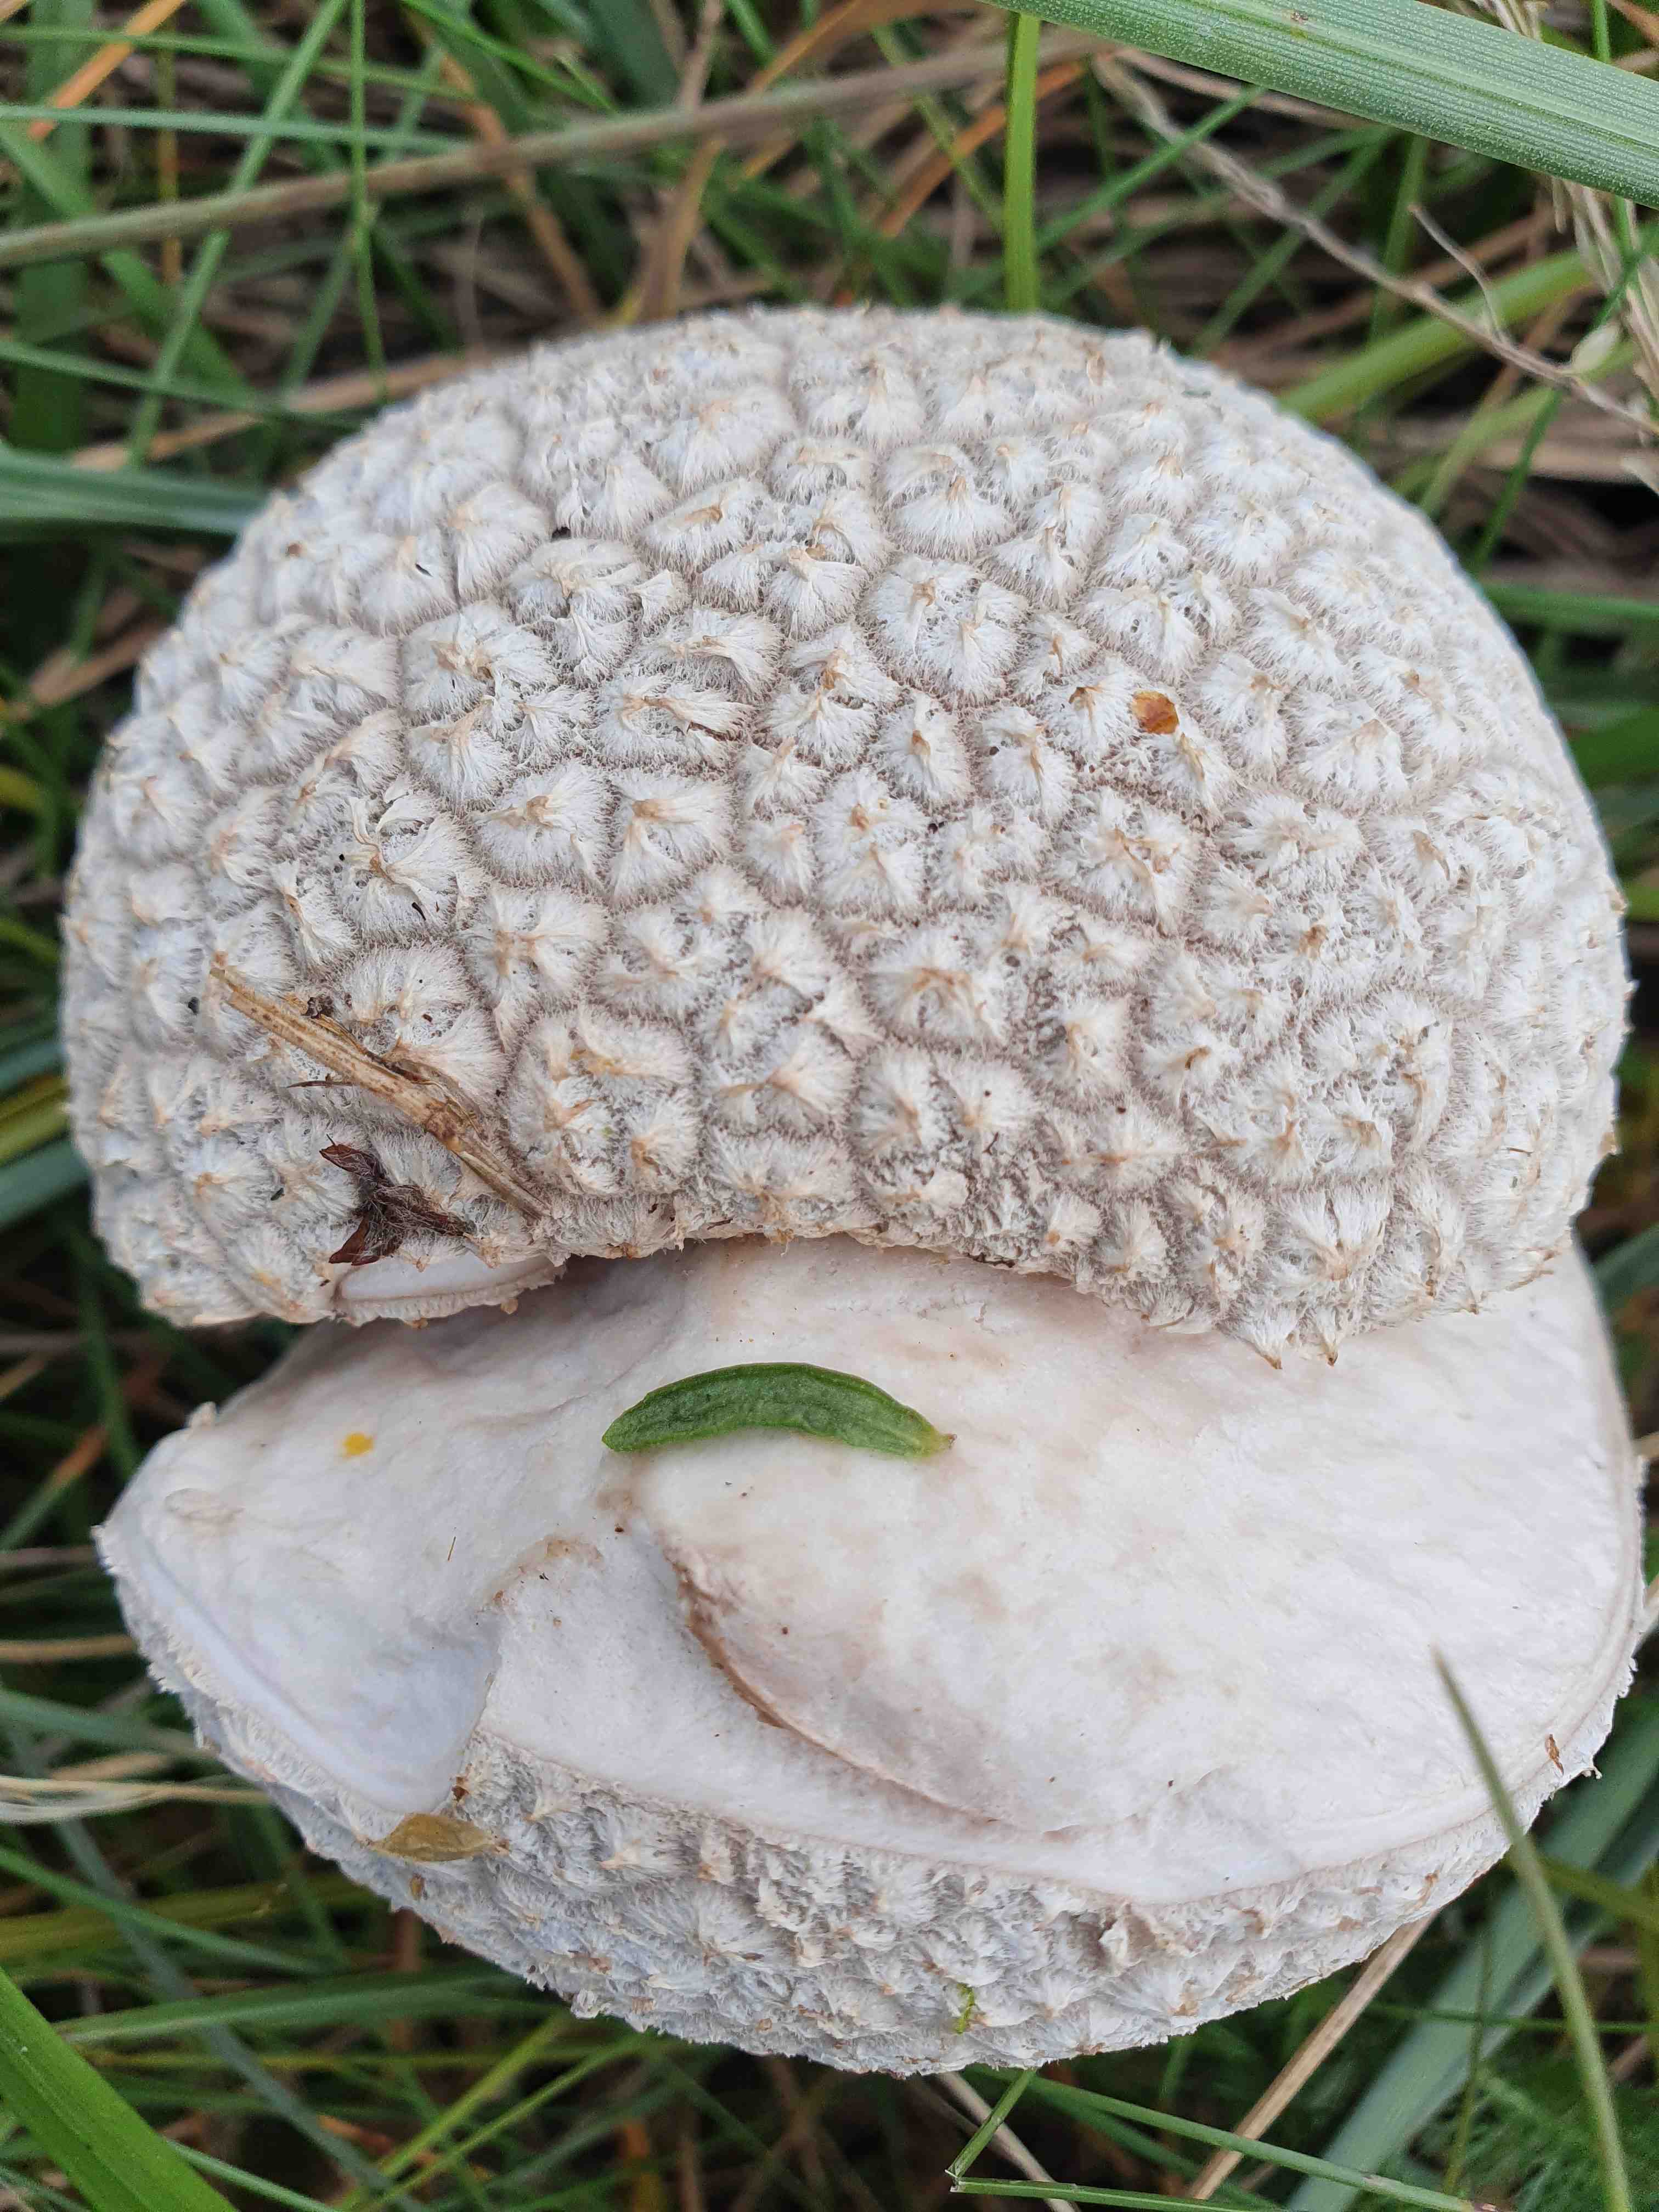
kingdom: Fungi
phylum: Basidiomycota
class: Agaricomycetes
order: Agaricales
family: Lycoperdaceae
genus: Bovistella
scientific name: Bovistella utriformis
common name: skællet støvbold
